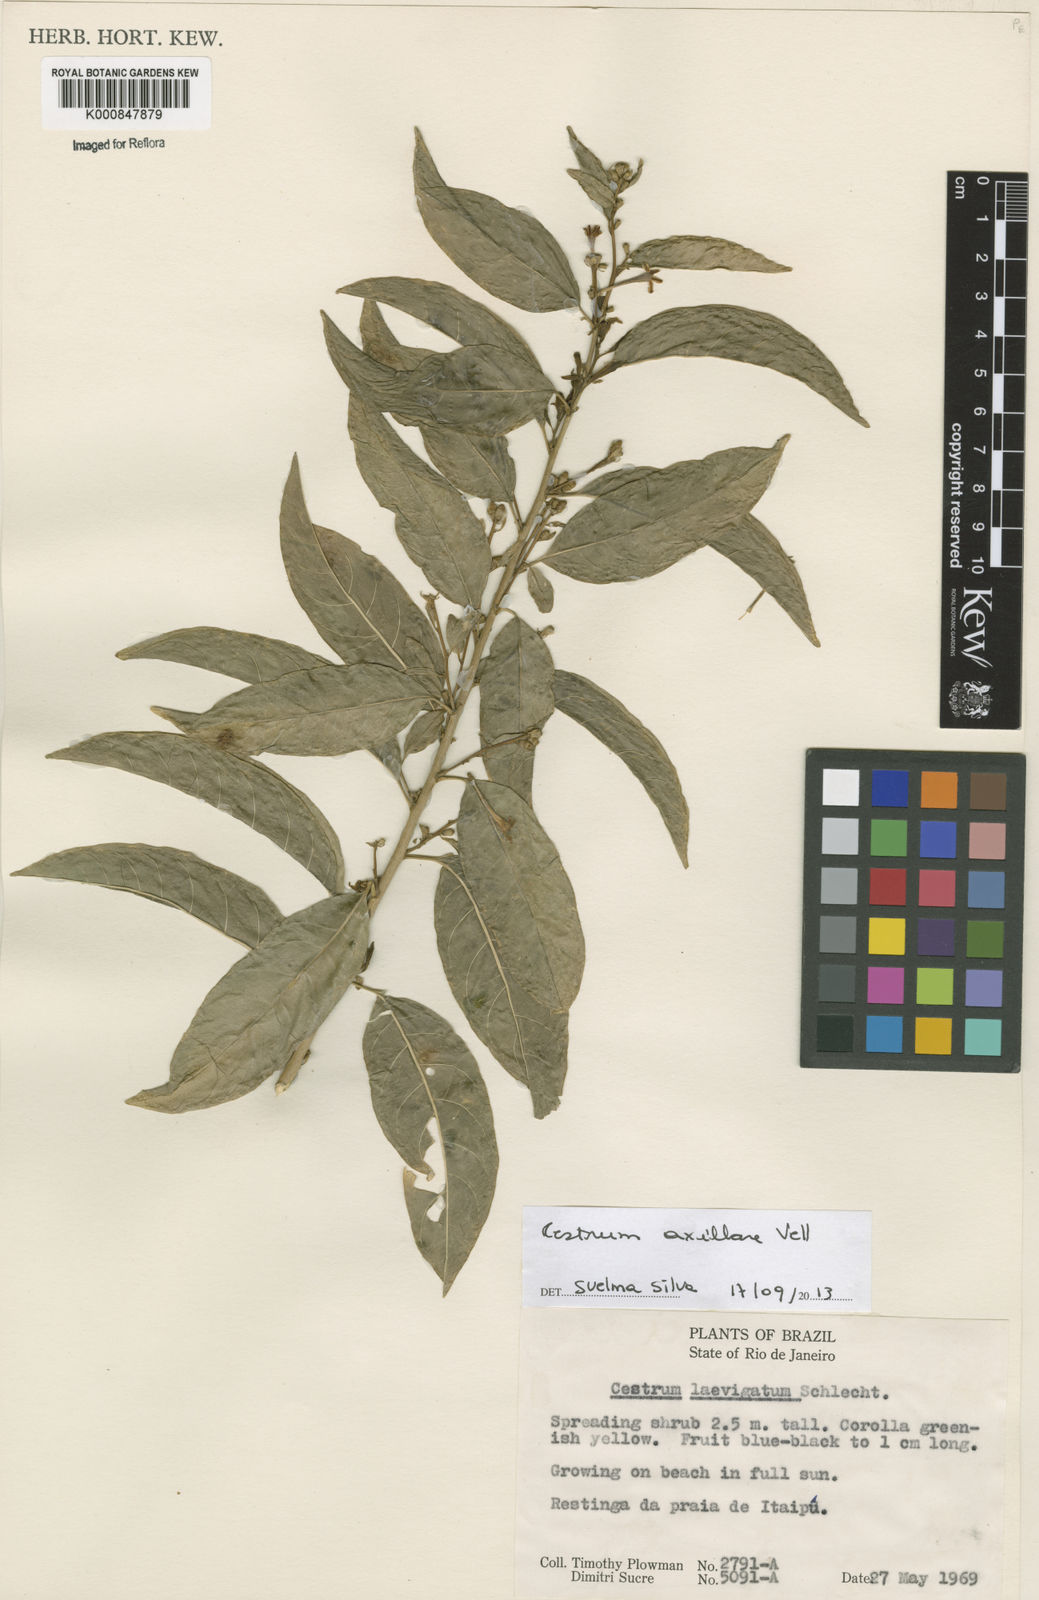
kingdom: Plantae
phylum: Tracheophyta
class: Magnoliopsida
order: Solanales
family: Solanaceae
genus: Cestrum
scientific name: Cestrum laevigatum
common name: Inkberry
